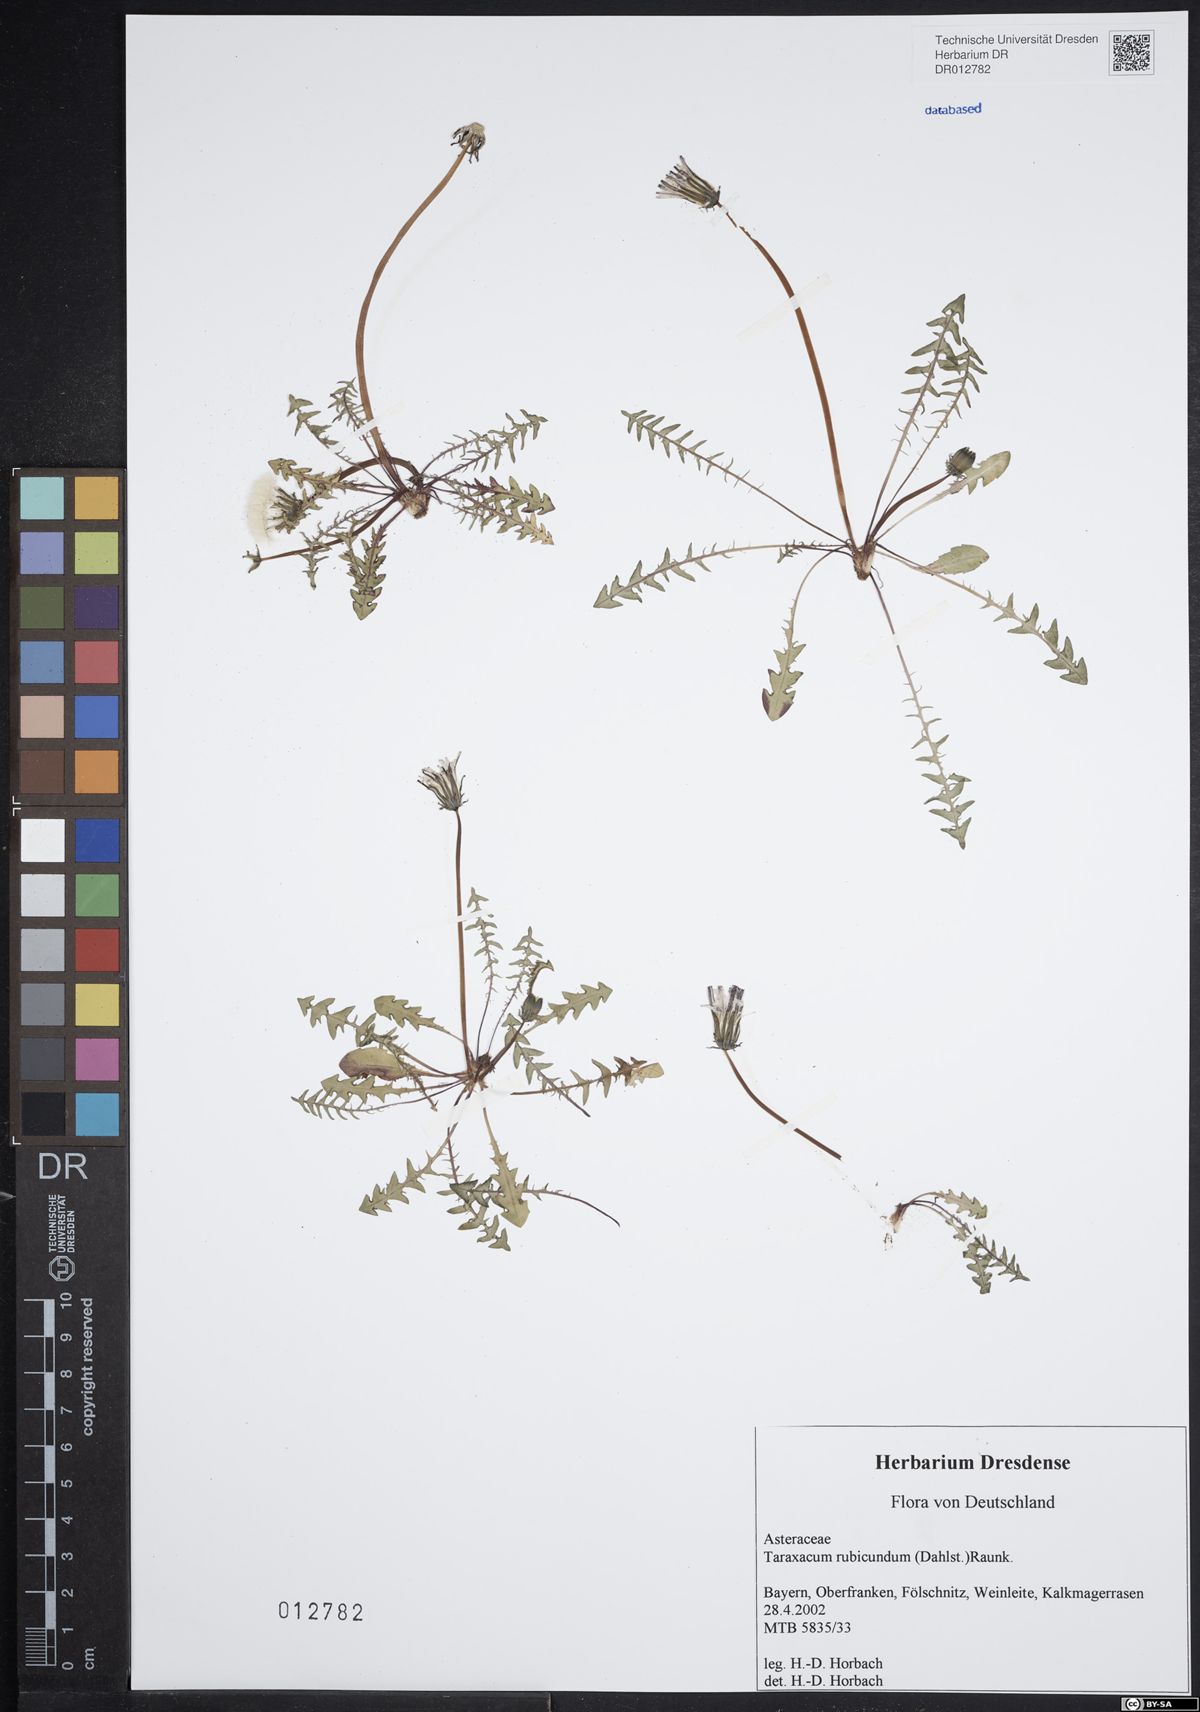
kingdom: Plantae
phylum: Tracheophyta
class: Magnoliopsida
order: Asterales
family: Asteraceae
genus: Taraxacum
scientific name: Taraxacum rubicundum
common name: Ruddy dandelion
